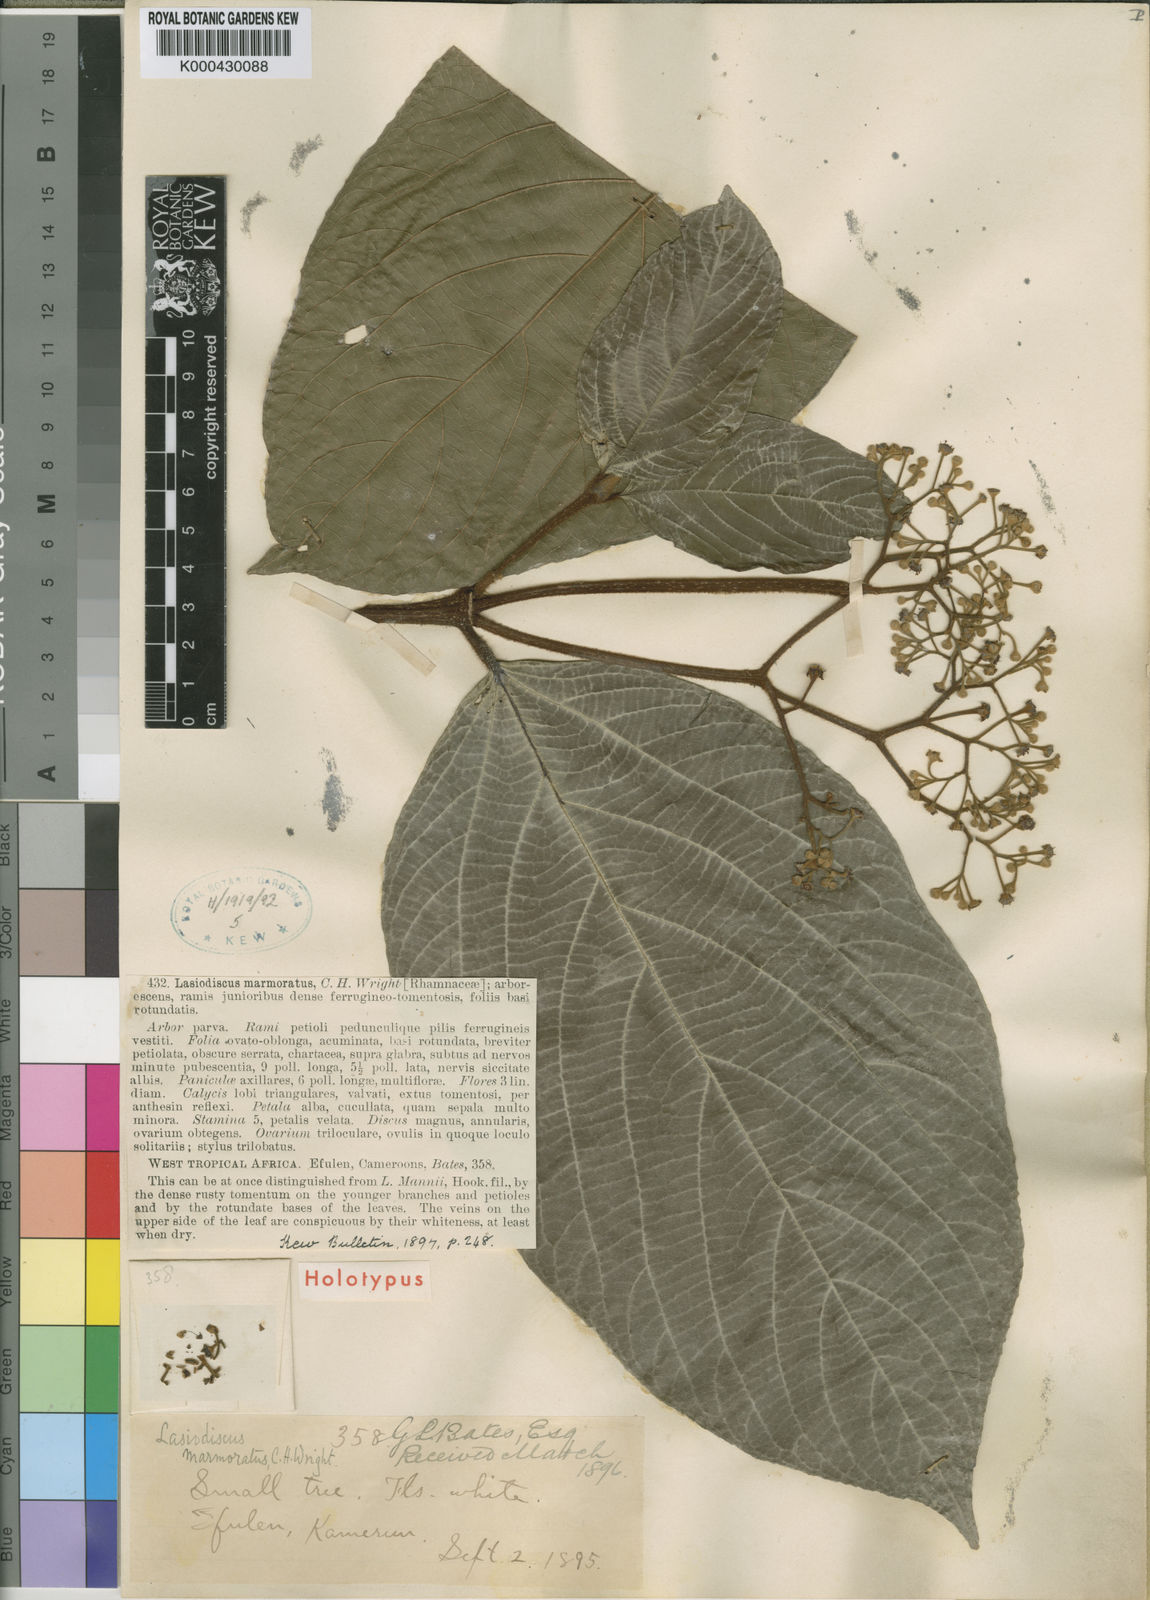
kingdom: Plantae
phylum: Tracheophyta
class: Magnoliopsida
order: Rosales
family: Rhamnaceae
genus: Lasiodiscus
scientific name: Lasiodiscus marmoratus
